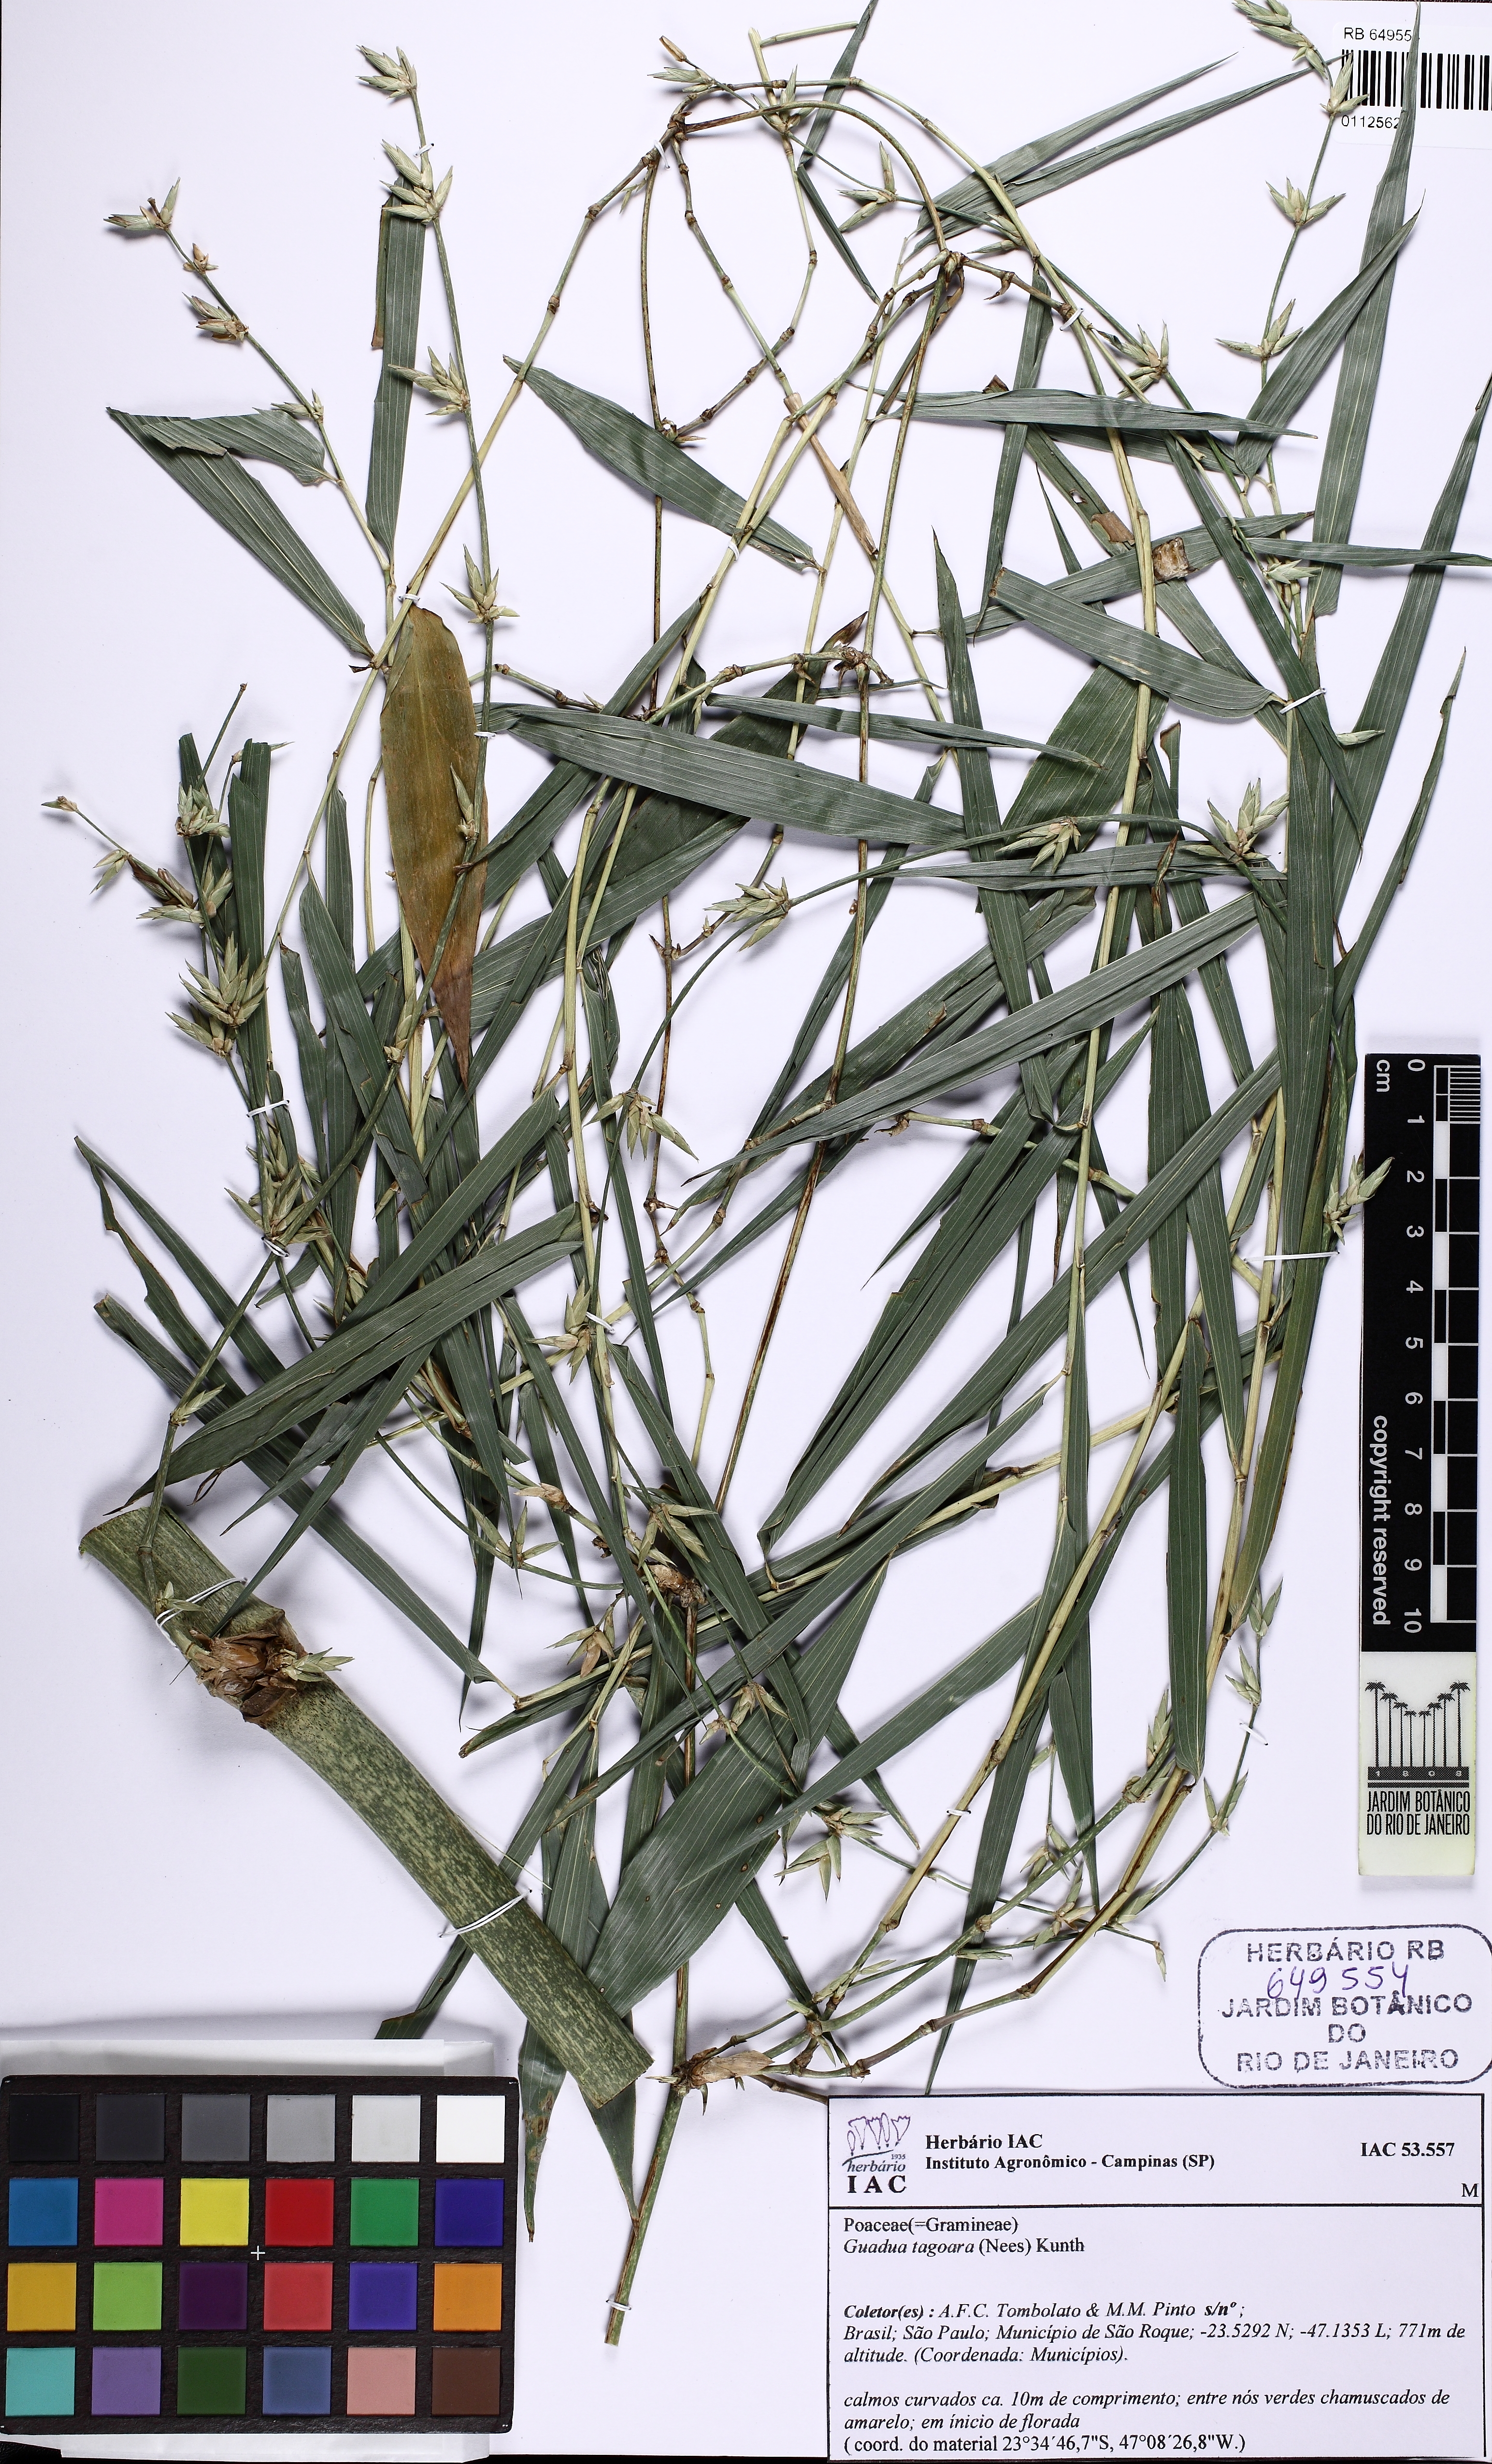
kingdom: Plantae
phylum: Tracheophyta
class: Liliopsida
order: Poales
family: Poaceae
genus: Guadua
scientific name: Guadua tagoara
